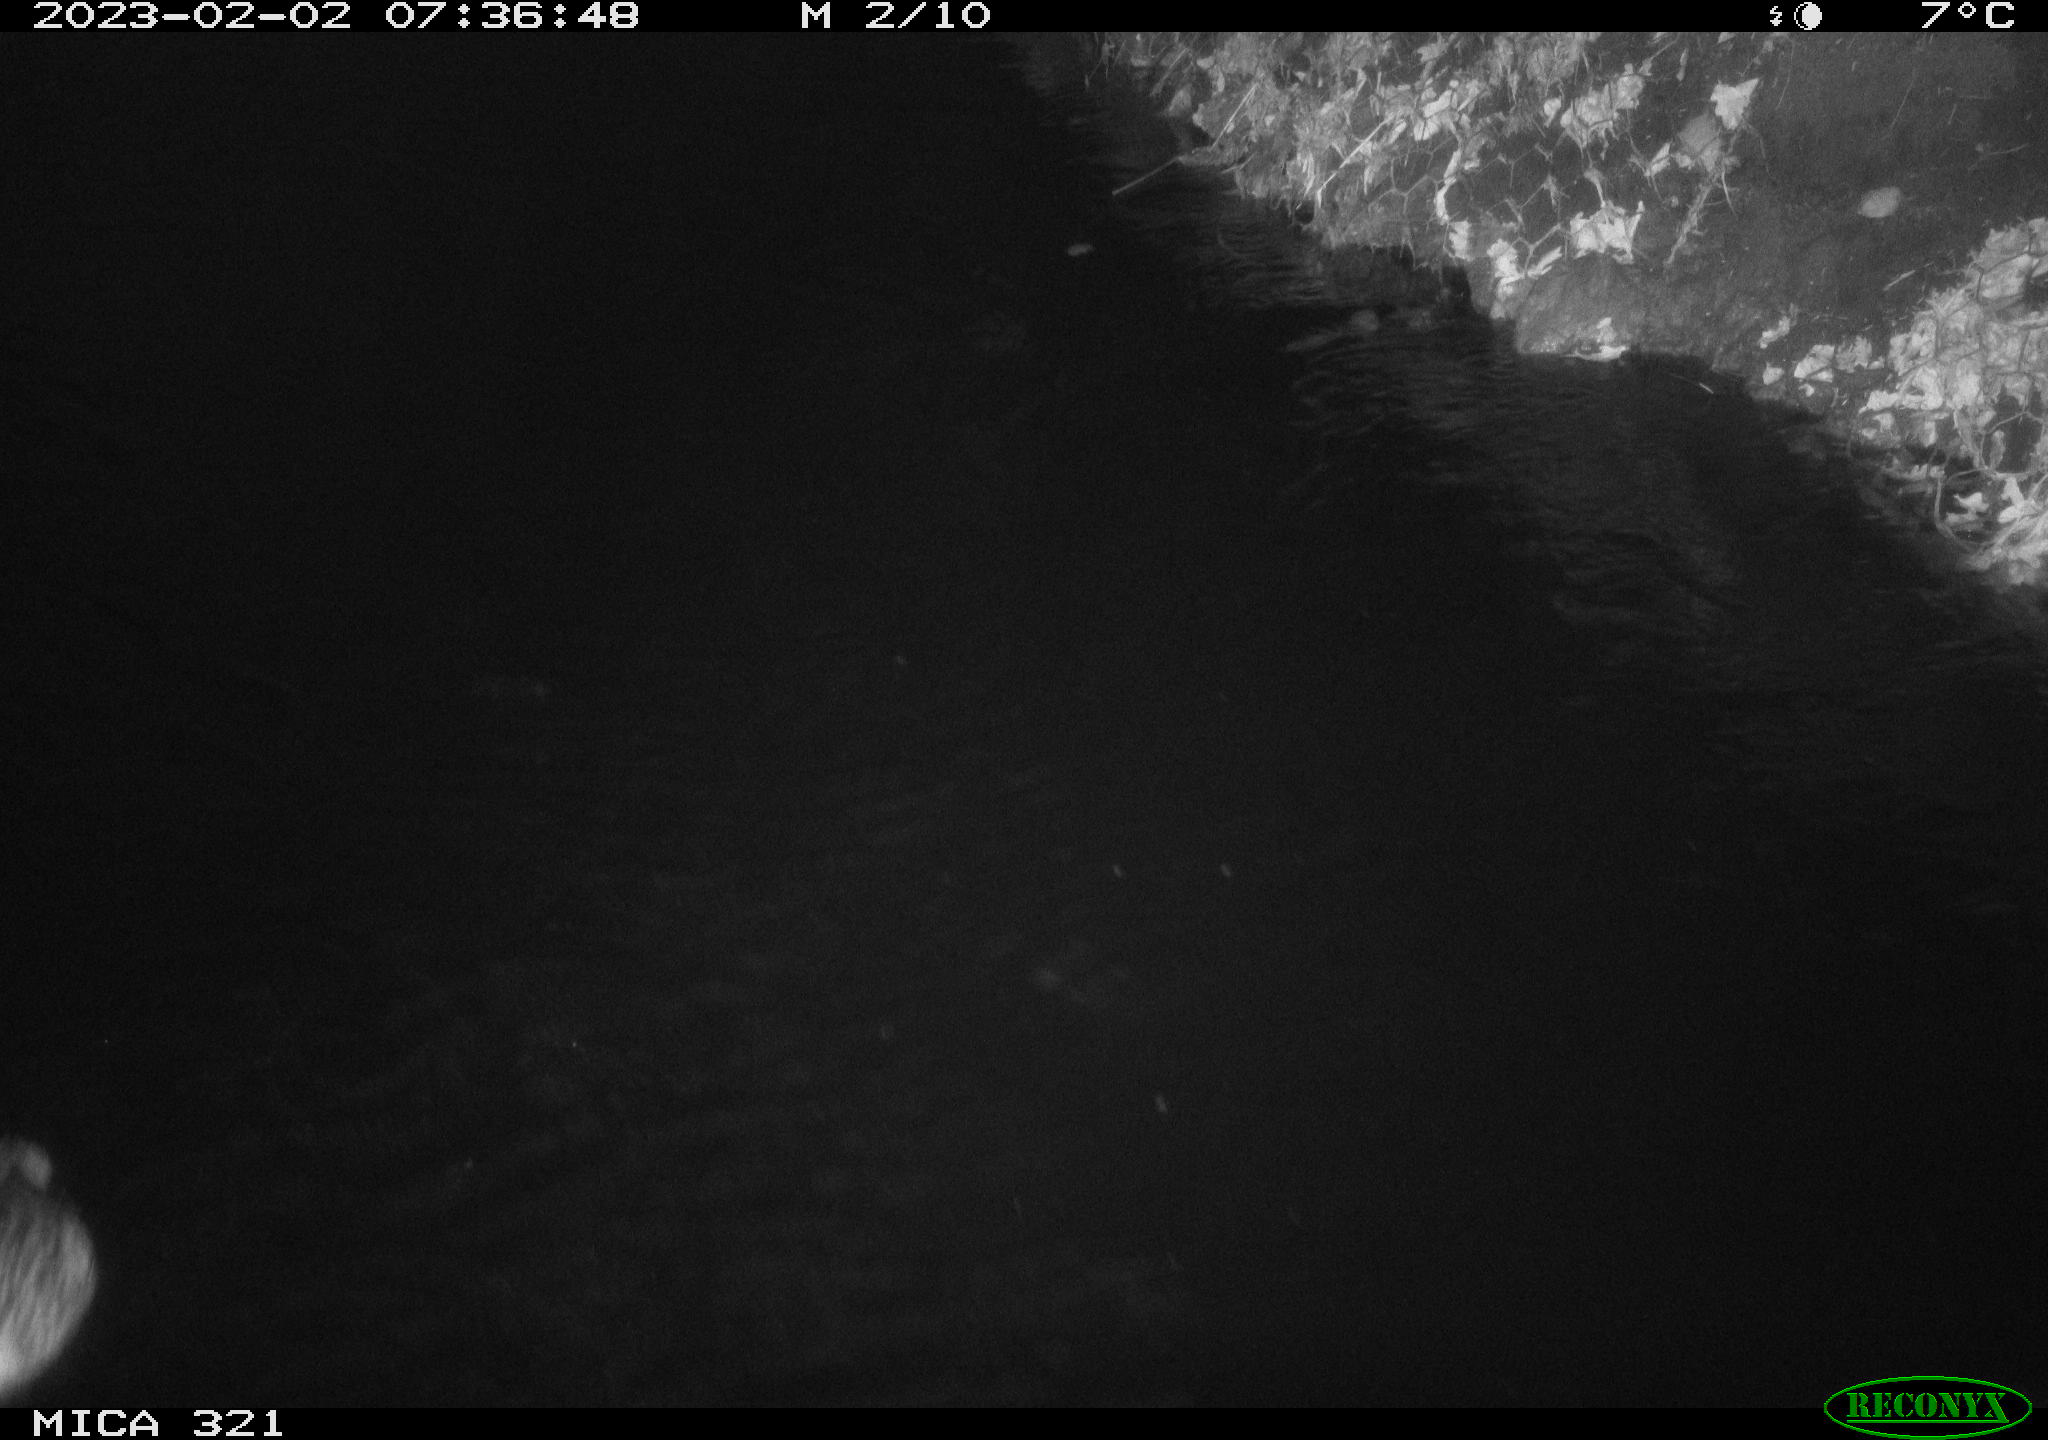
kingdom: Animalia
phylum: Chordata
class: Aves
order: Anseriformes
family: Anatidae
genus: Anas
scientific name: Anas
